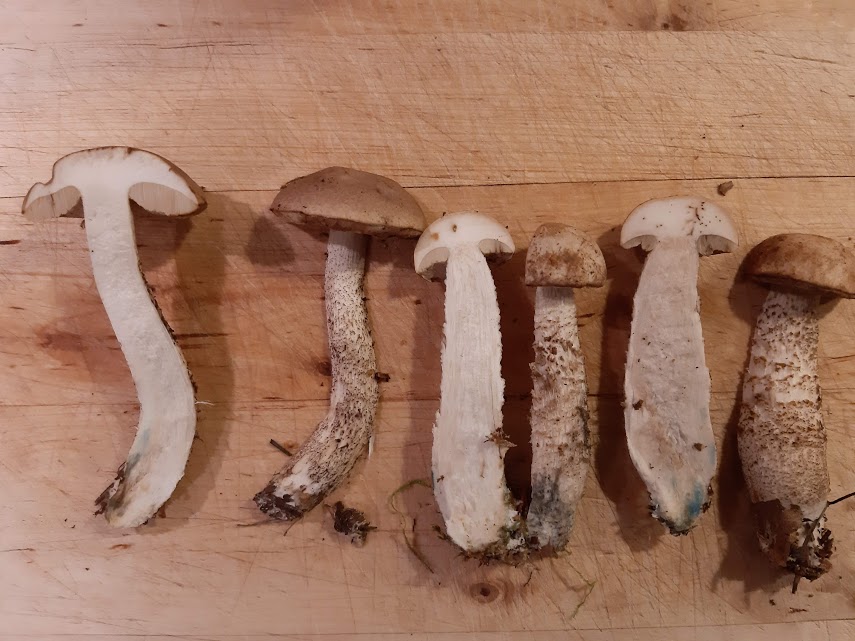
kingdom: Fungi
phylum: Basidiomycota
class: Agaricomycetes
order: Boletales
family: Boletaceae
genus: Leccinum
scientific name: Leccinum cyaneobasileucum
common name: almindelig skælrørhat
